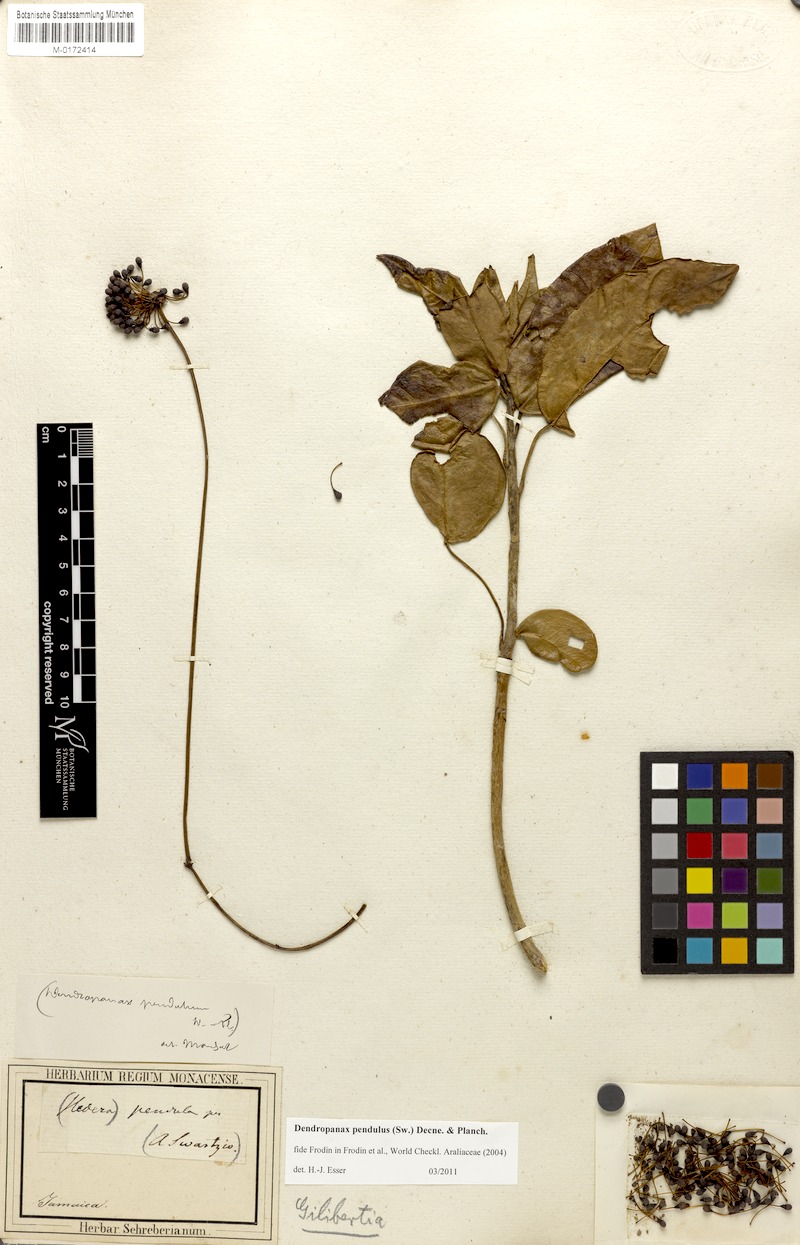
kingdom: Plantae
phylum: Tracheophyta
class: Magnoliopsida
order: Apiales
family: Araliaceae
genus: Dendropanax
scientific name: Dendropanax pendulus
